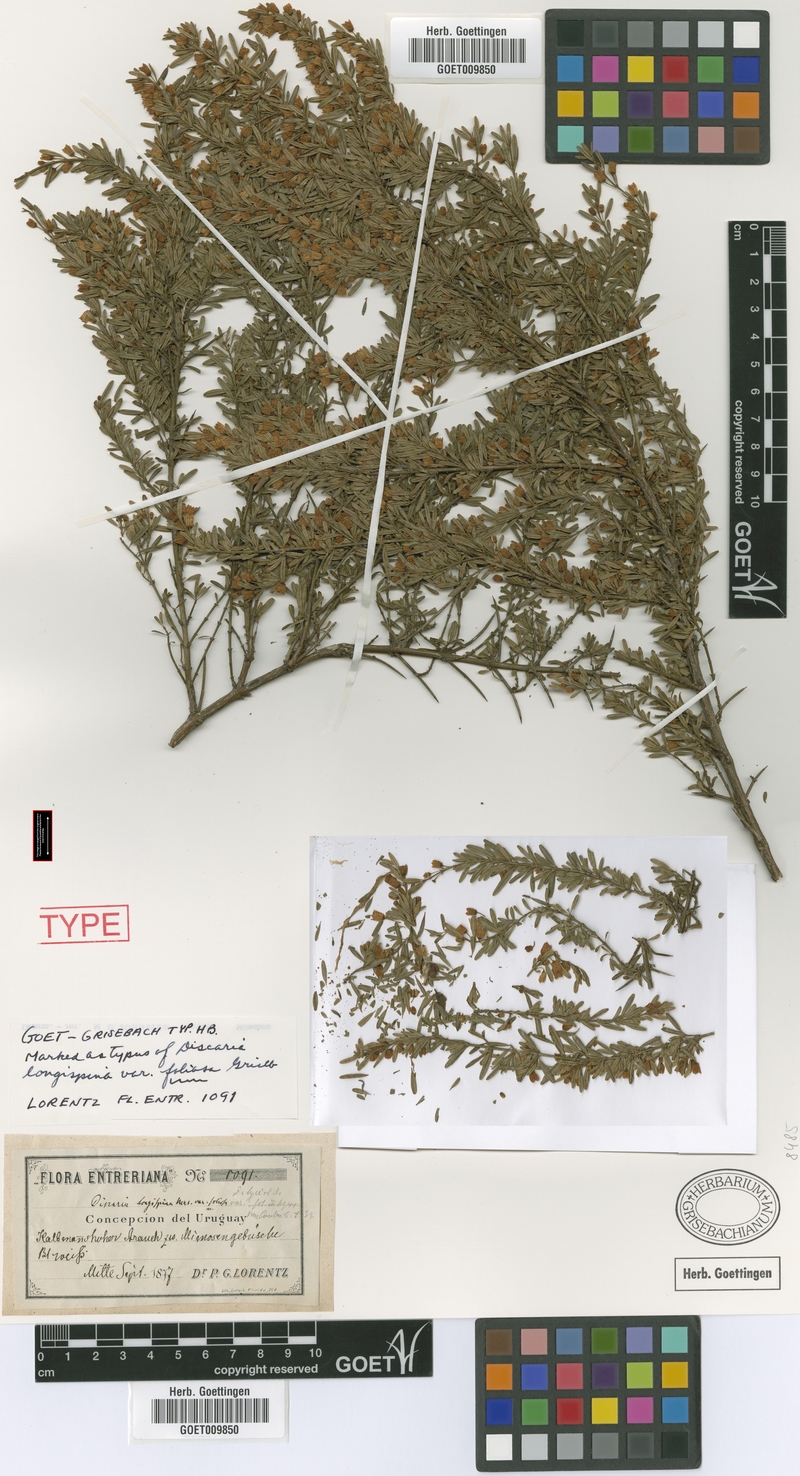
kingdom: Plantae
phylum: Tracheophyta
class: Magnoliopsida
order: Rosales
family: Rhamnaceae
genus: Discaria
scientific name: Discaria americana
